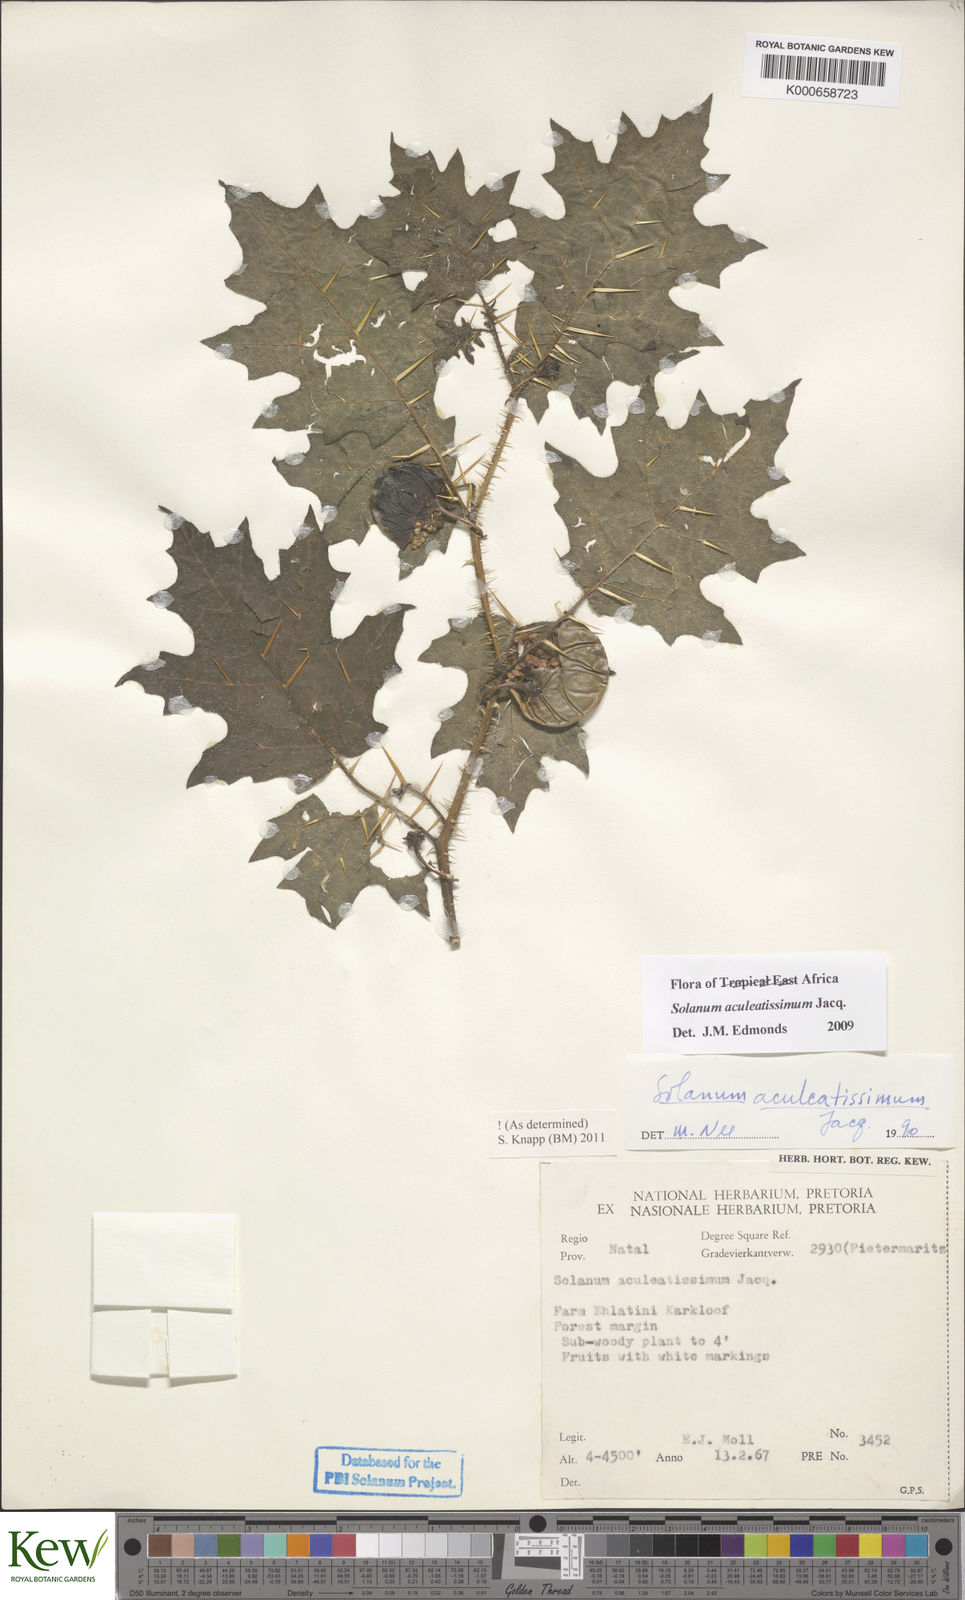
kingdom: Plantae
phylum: Tracheophyta
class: Magnoliopsida
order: Solanales
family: Solanaceae
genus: Solanum
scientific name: Solanum aculeatissimum
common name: Dutch eggplant
